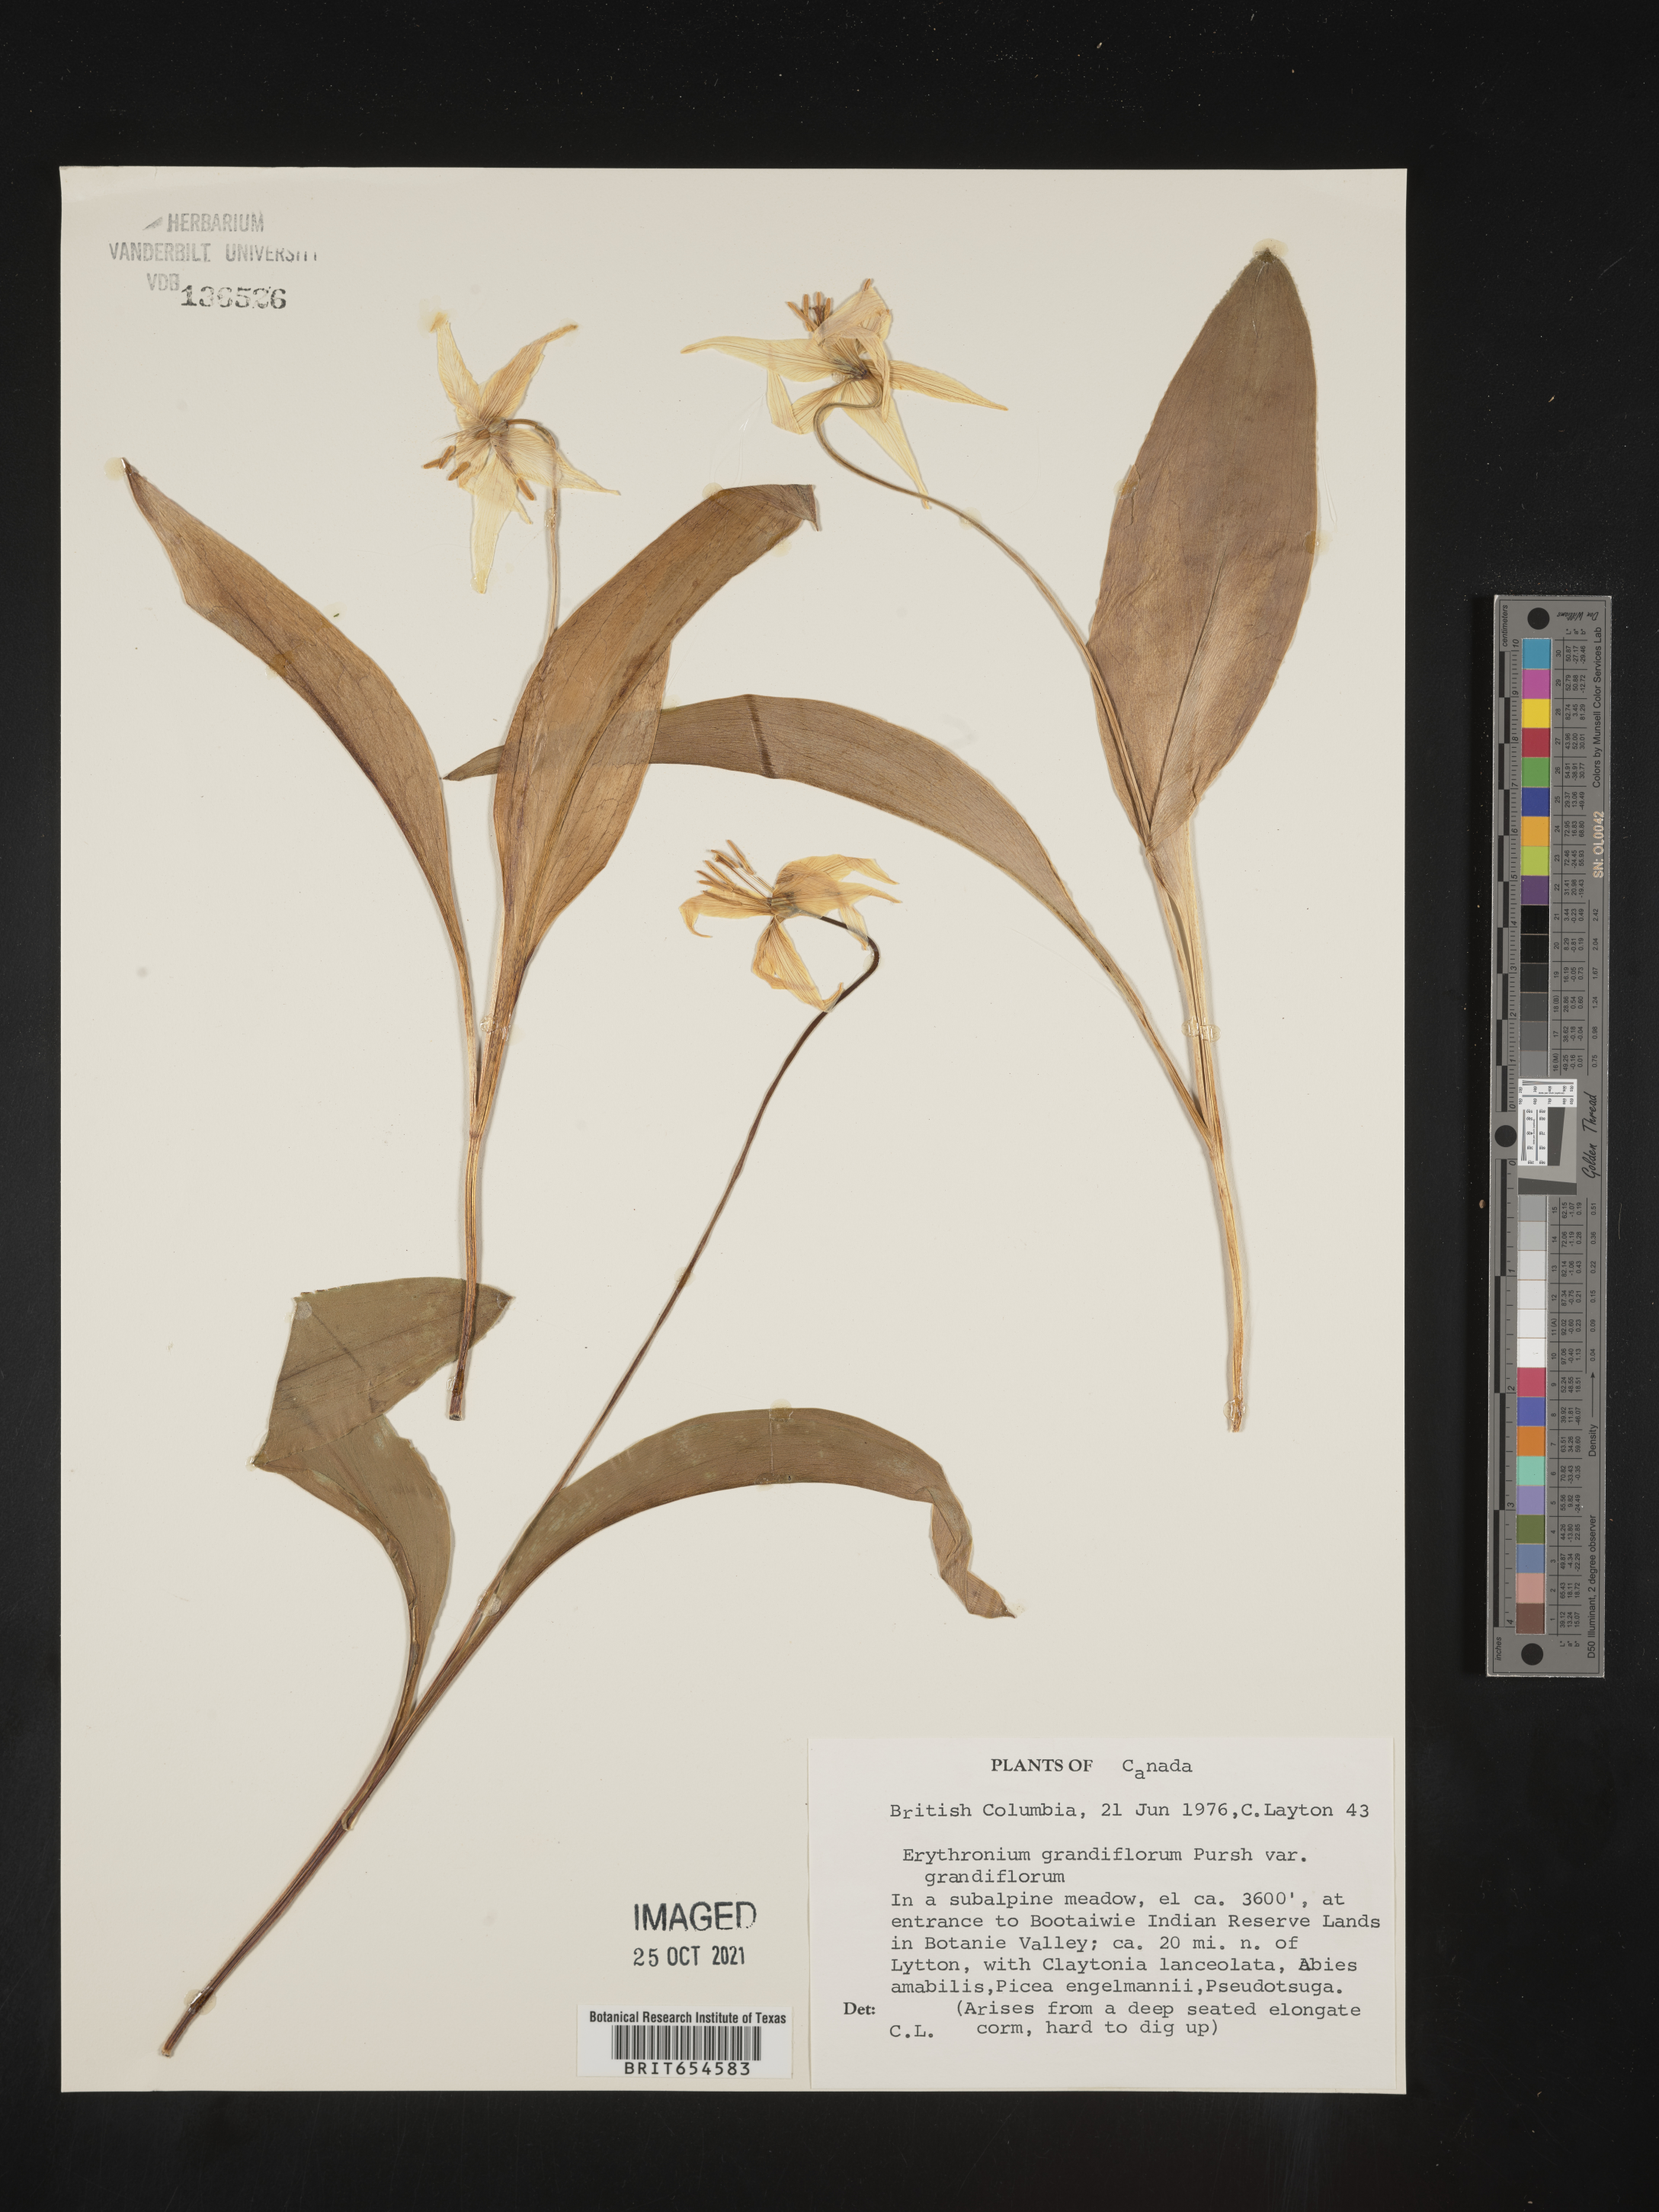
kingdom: Plantae
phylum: Tracheophyta
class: Liliopsida
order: Liliales
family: Liliaceae
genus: Erythronium
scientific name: Erythronium
